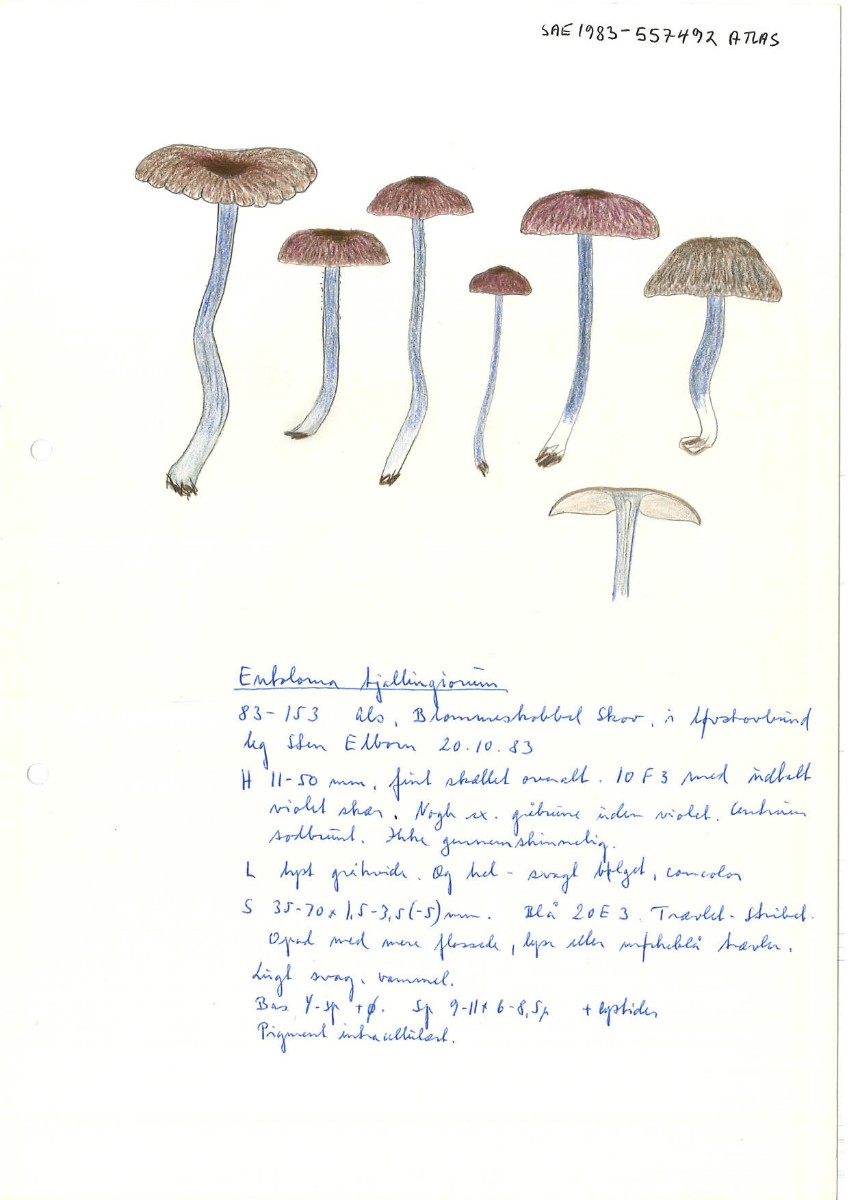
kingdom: Fungi
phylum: Basidiomycota
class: Agaricomycetes
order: Agaricales
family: Entolomataceae
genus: Entoloma
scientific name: Entoloma tjallingiorum
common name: prægtig rødblad
